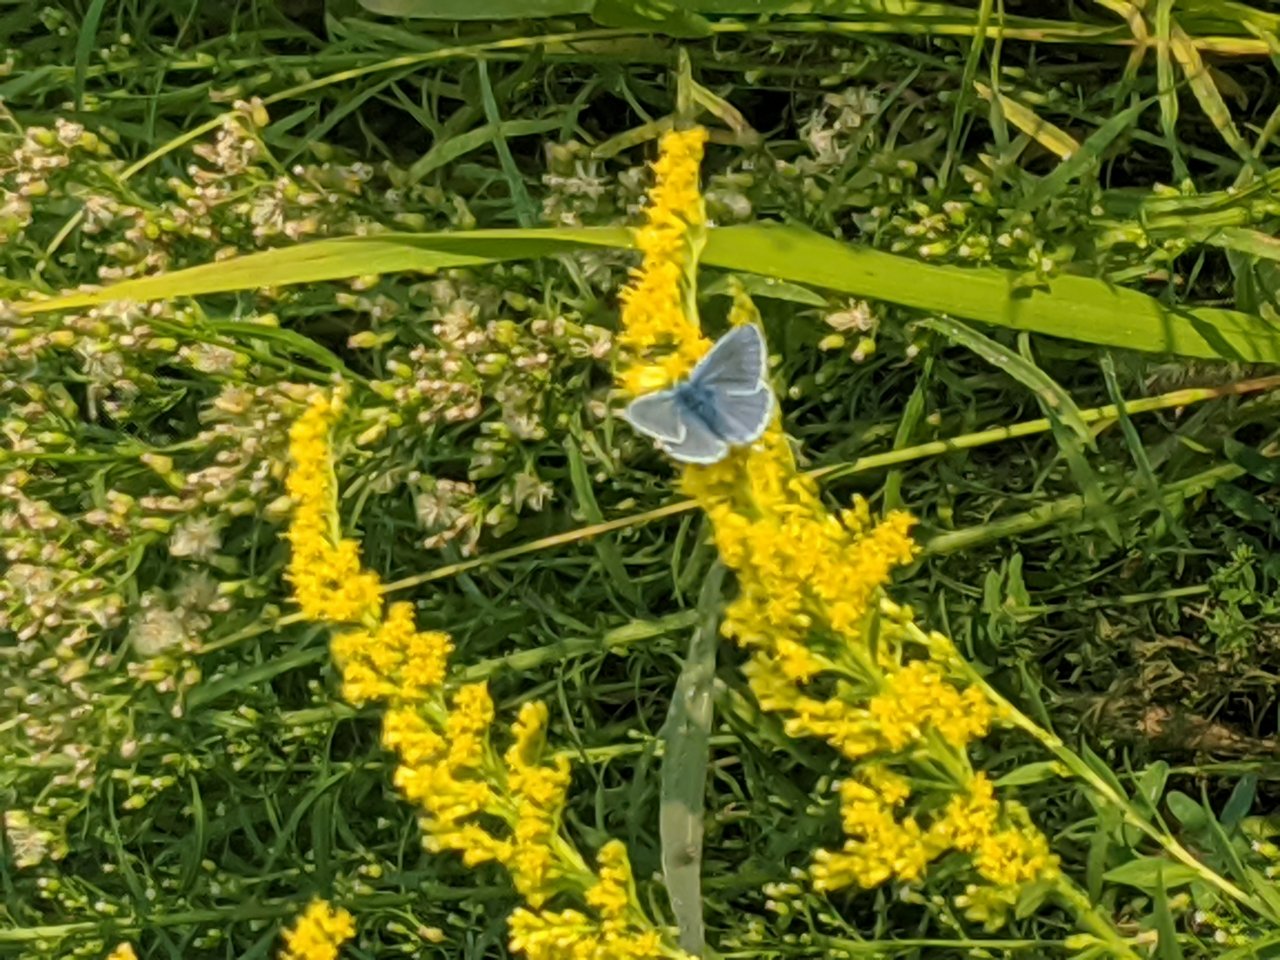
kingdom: Animalia
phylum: Arthropoda
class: Insecta
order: Lepidoptera
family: Lycaenidae
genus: Polyommatus
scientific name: Polyommatus icarus
